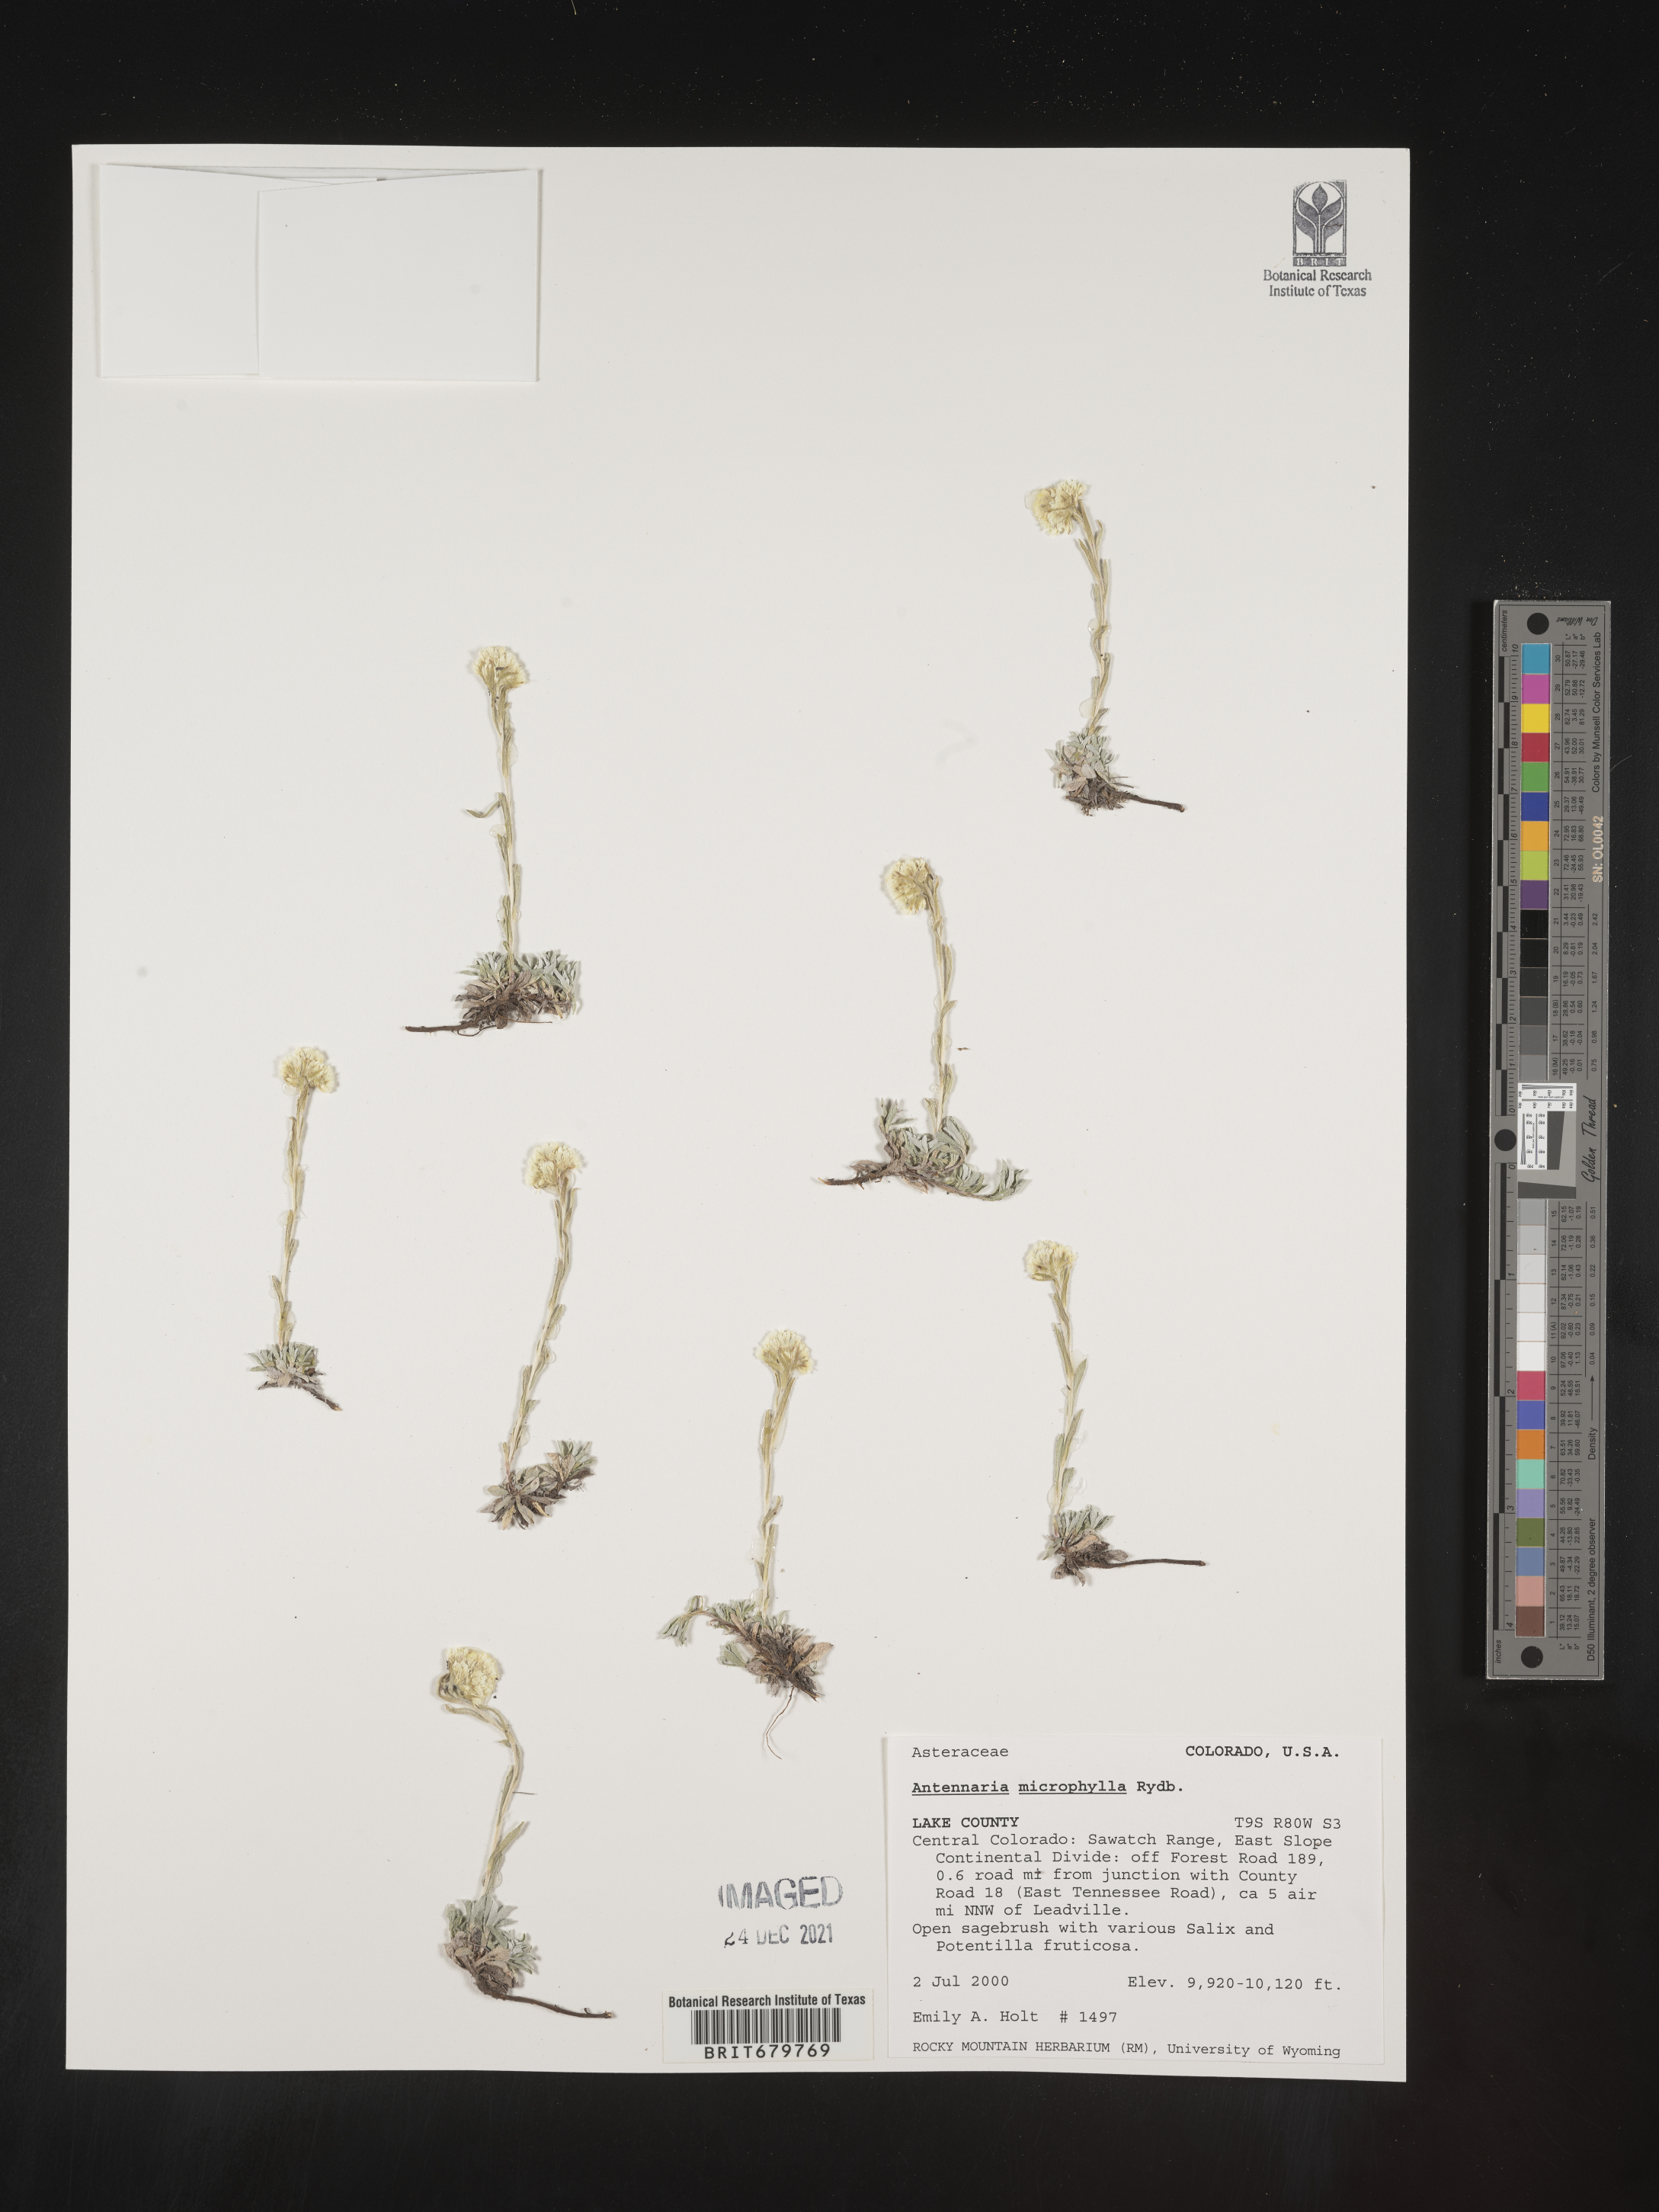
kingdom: Plantae
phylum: Tracheophyta
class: Magnoliopsida
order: Asterales
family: Asteraceae
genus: Antennaria
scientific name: Antennaria microphylla
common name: Littleleaf pussytoes
